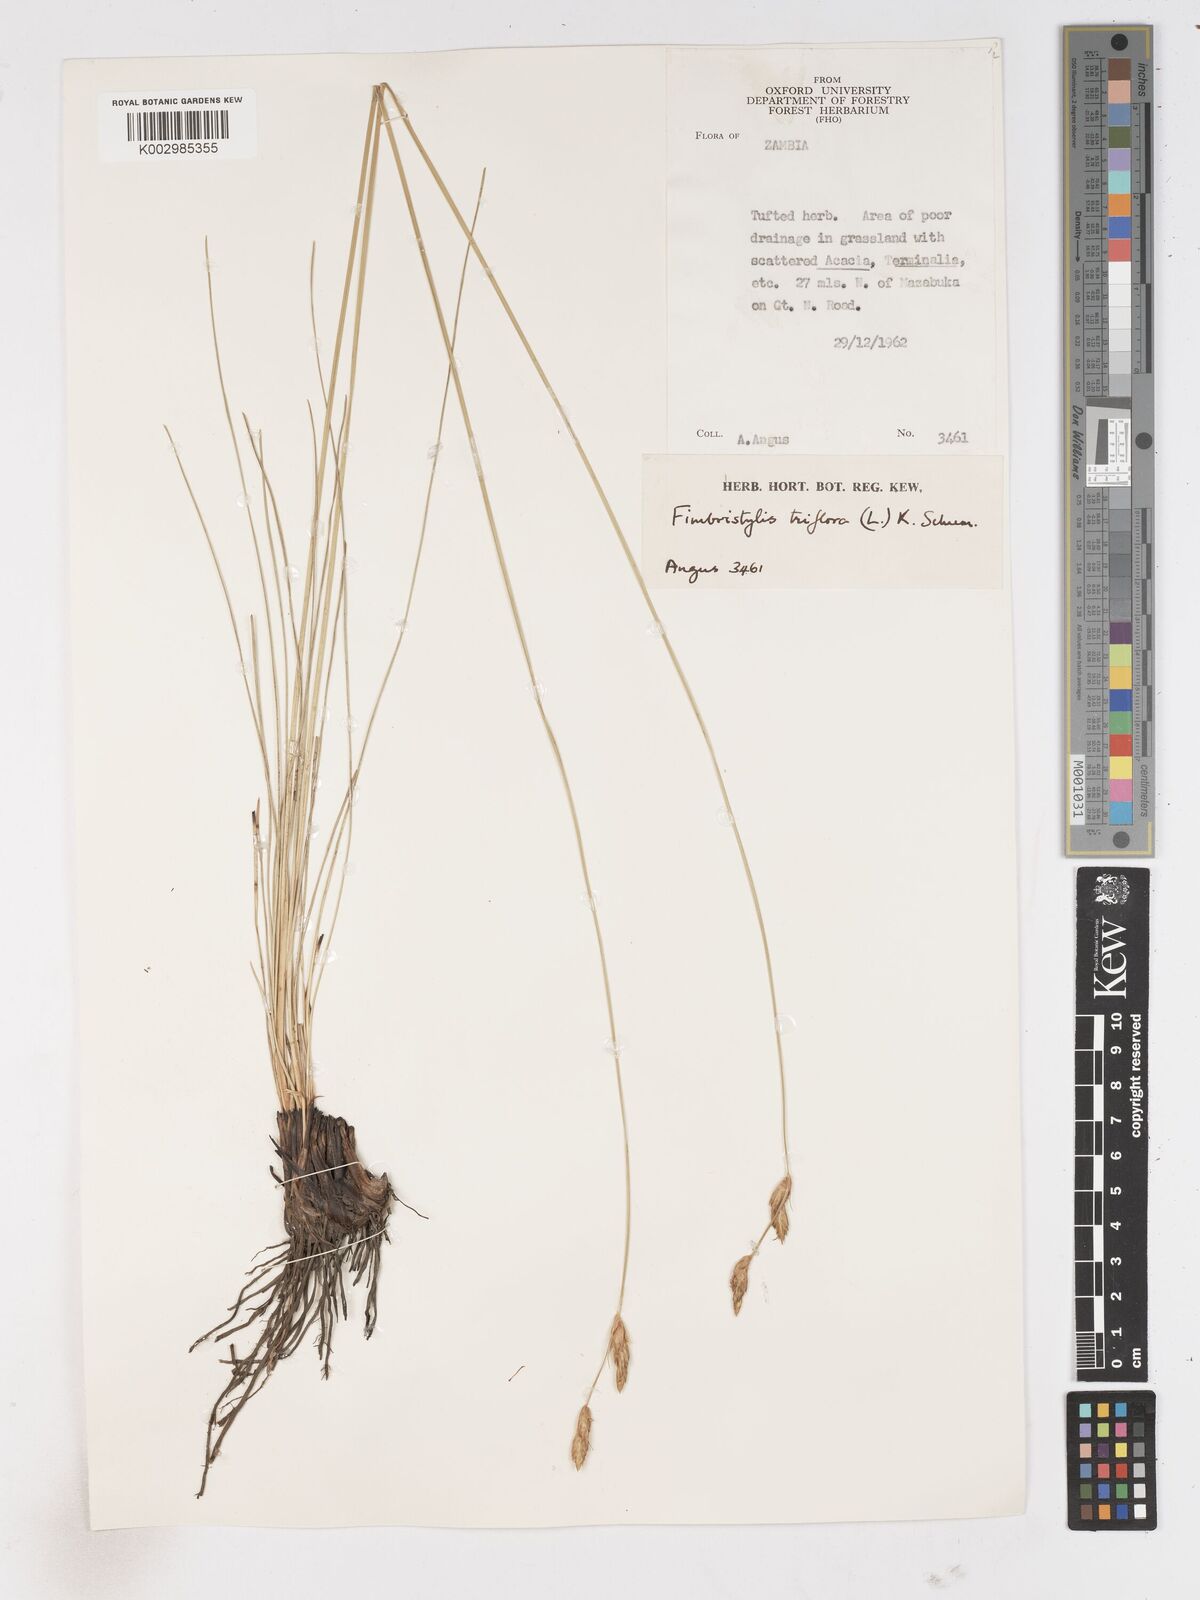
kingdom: Plantae
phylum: Tracheophyta
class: Liliopsida
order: Poales
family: Cyperaceae
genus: Abildgaardia
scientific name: Abildgaardia triflora
